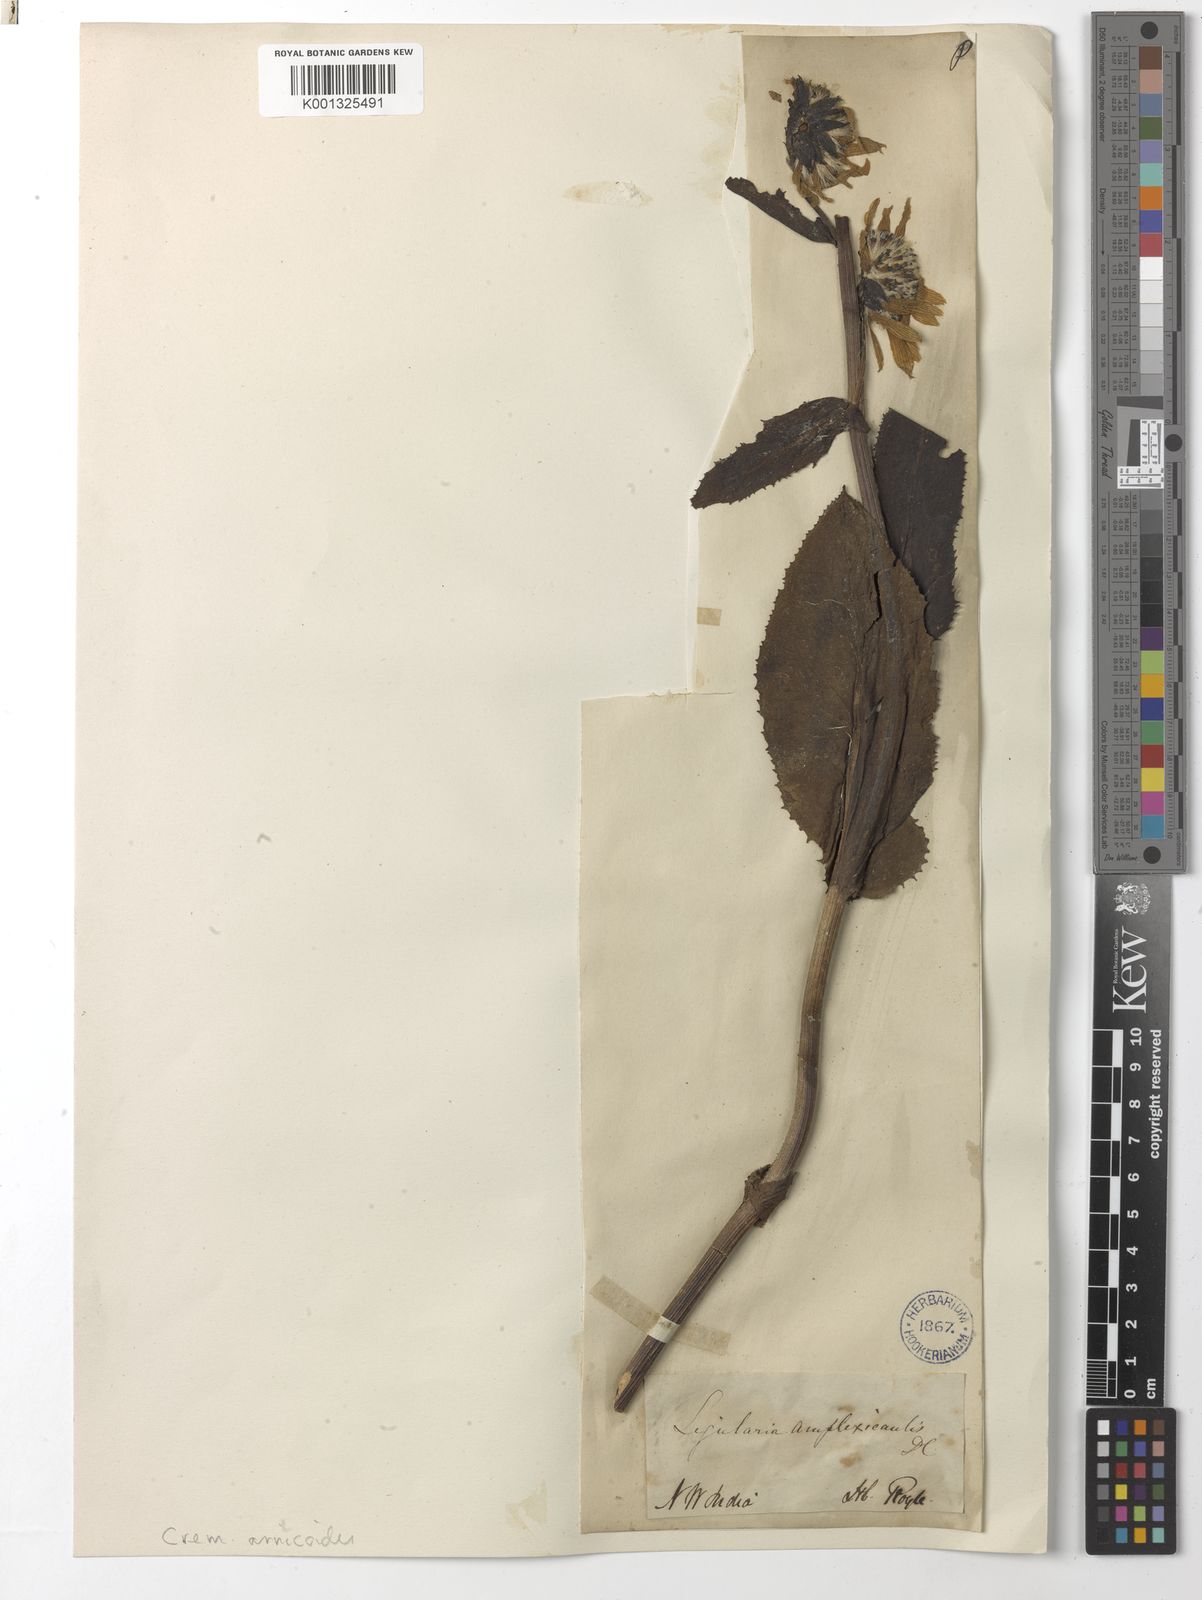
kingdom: Plantae
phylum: Tracheophyta
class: Magnoliopsida
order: Asterales
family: Asteraceae
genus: Cremanthodium
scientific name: Cremanthodium arnicoides
